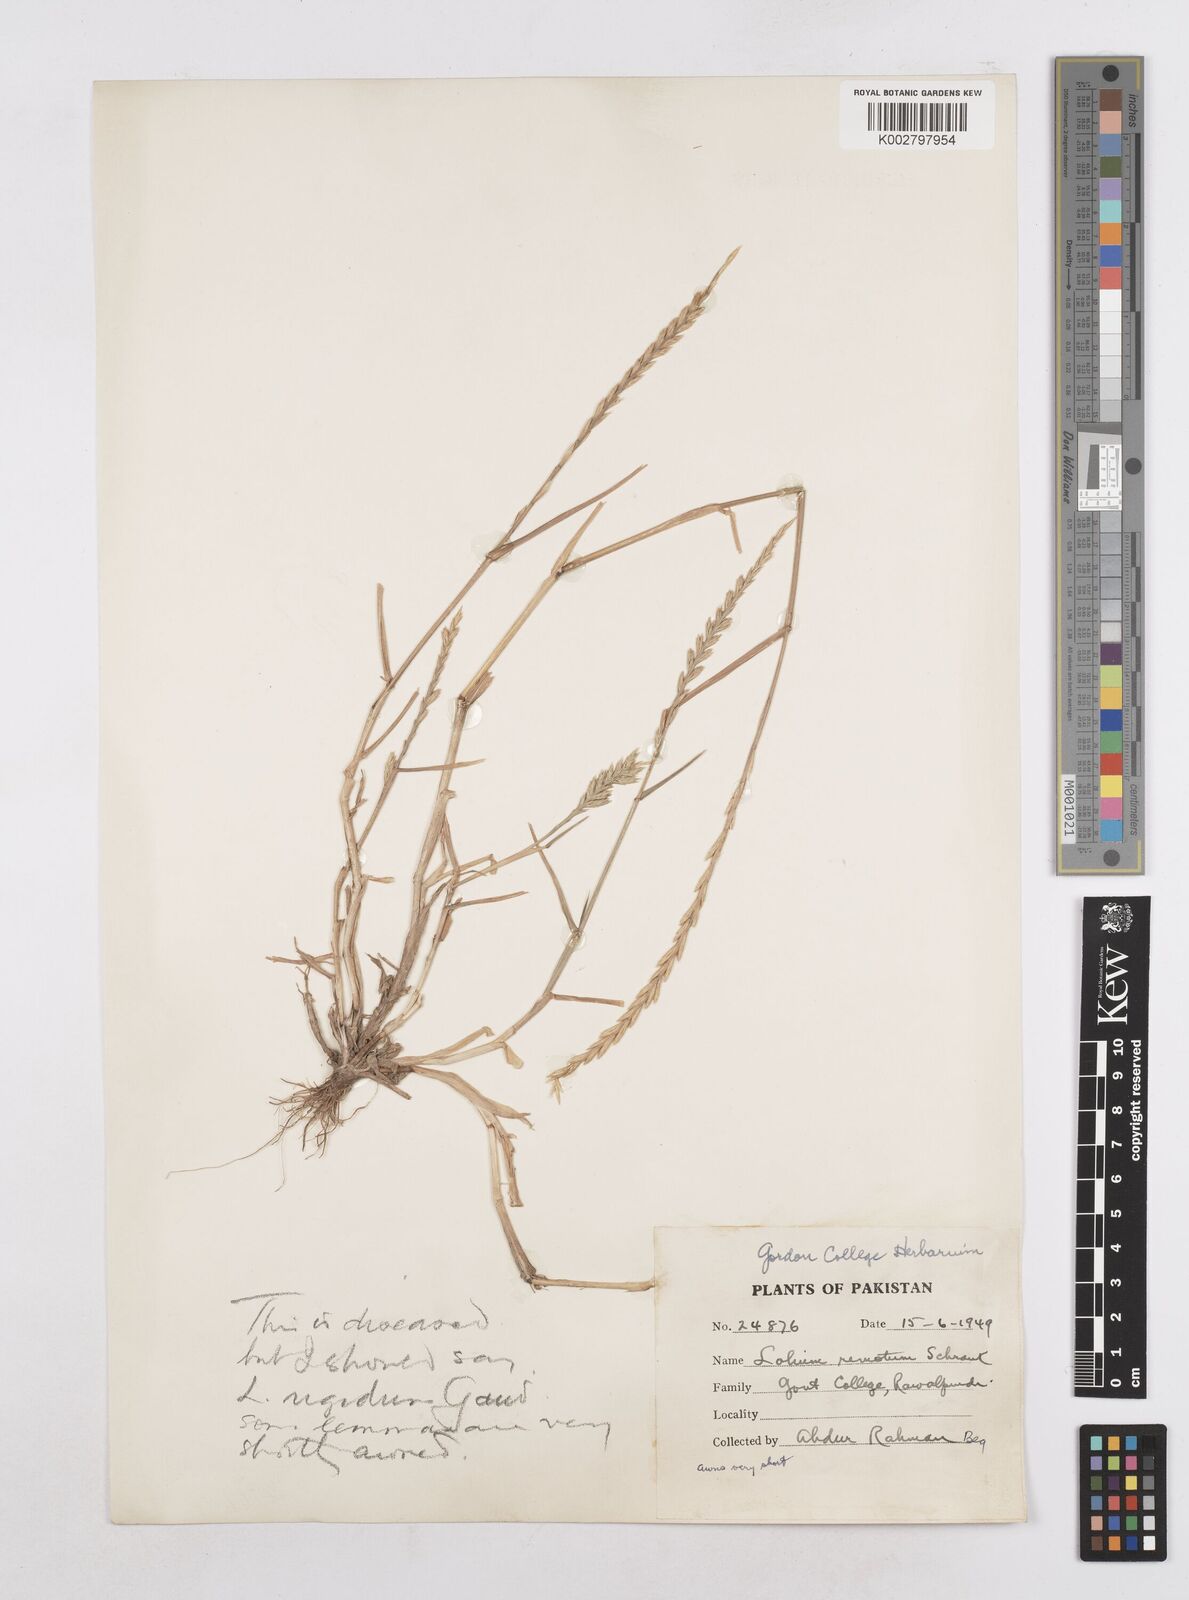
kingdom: Plantae
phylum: Tracheophyta
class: Liliopsida
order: Poales
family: Poaceae
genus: Lolium
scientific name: Lolium rigidum
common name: Wimmera ryegrass
